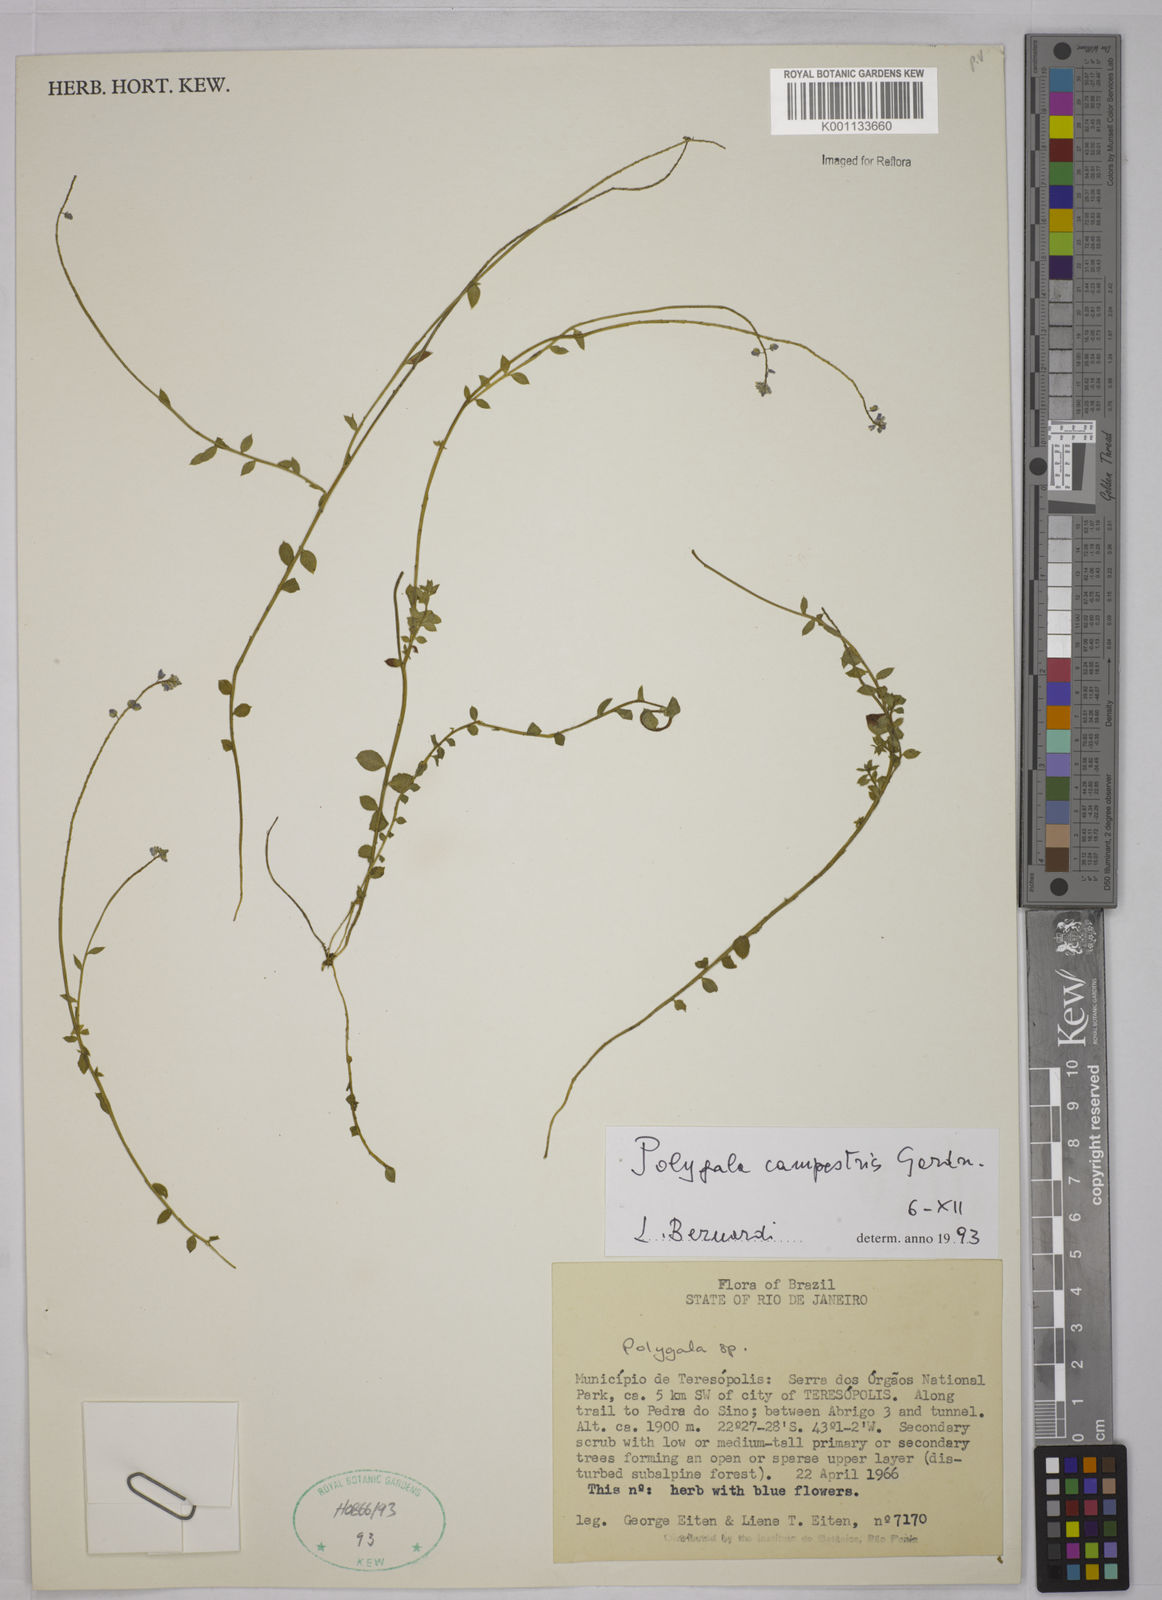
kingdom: Plantae
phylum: Tracheophyta
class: Magnoliopsida
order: Fabales
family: Polygalaceae
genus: Polygala
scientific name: Polygala campestris
